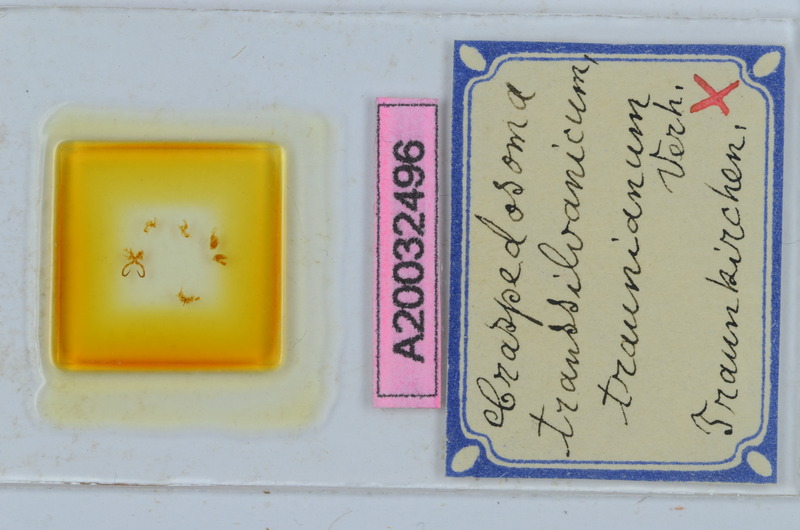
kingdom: Animalia
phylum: Arthropoda
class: Diplopoda
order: Chordeumatida
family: Craspedosomatidae
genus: Craspedosoma
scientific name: Craspedosoma transsilvanicum
